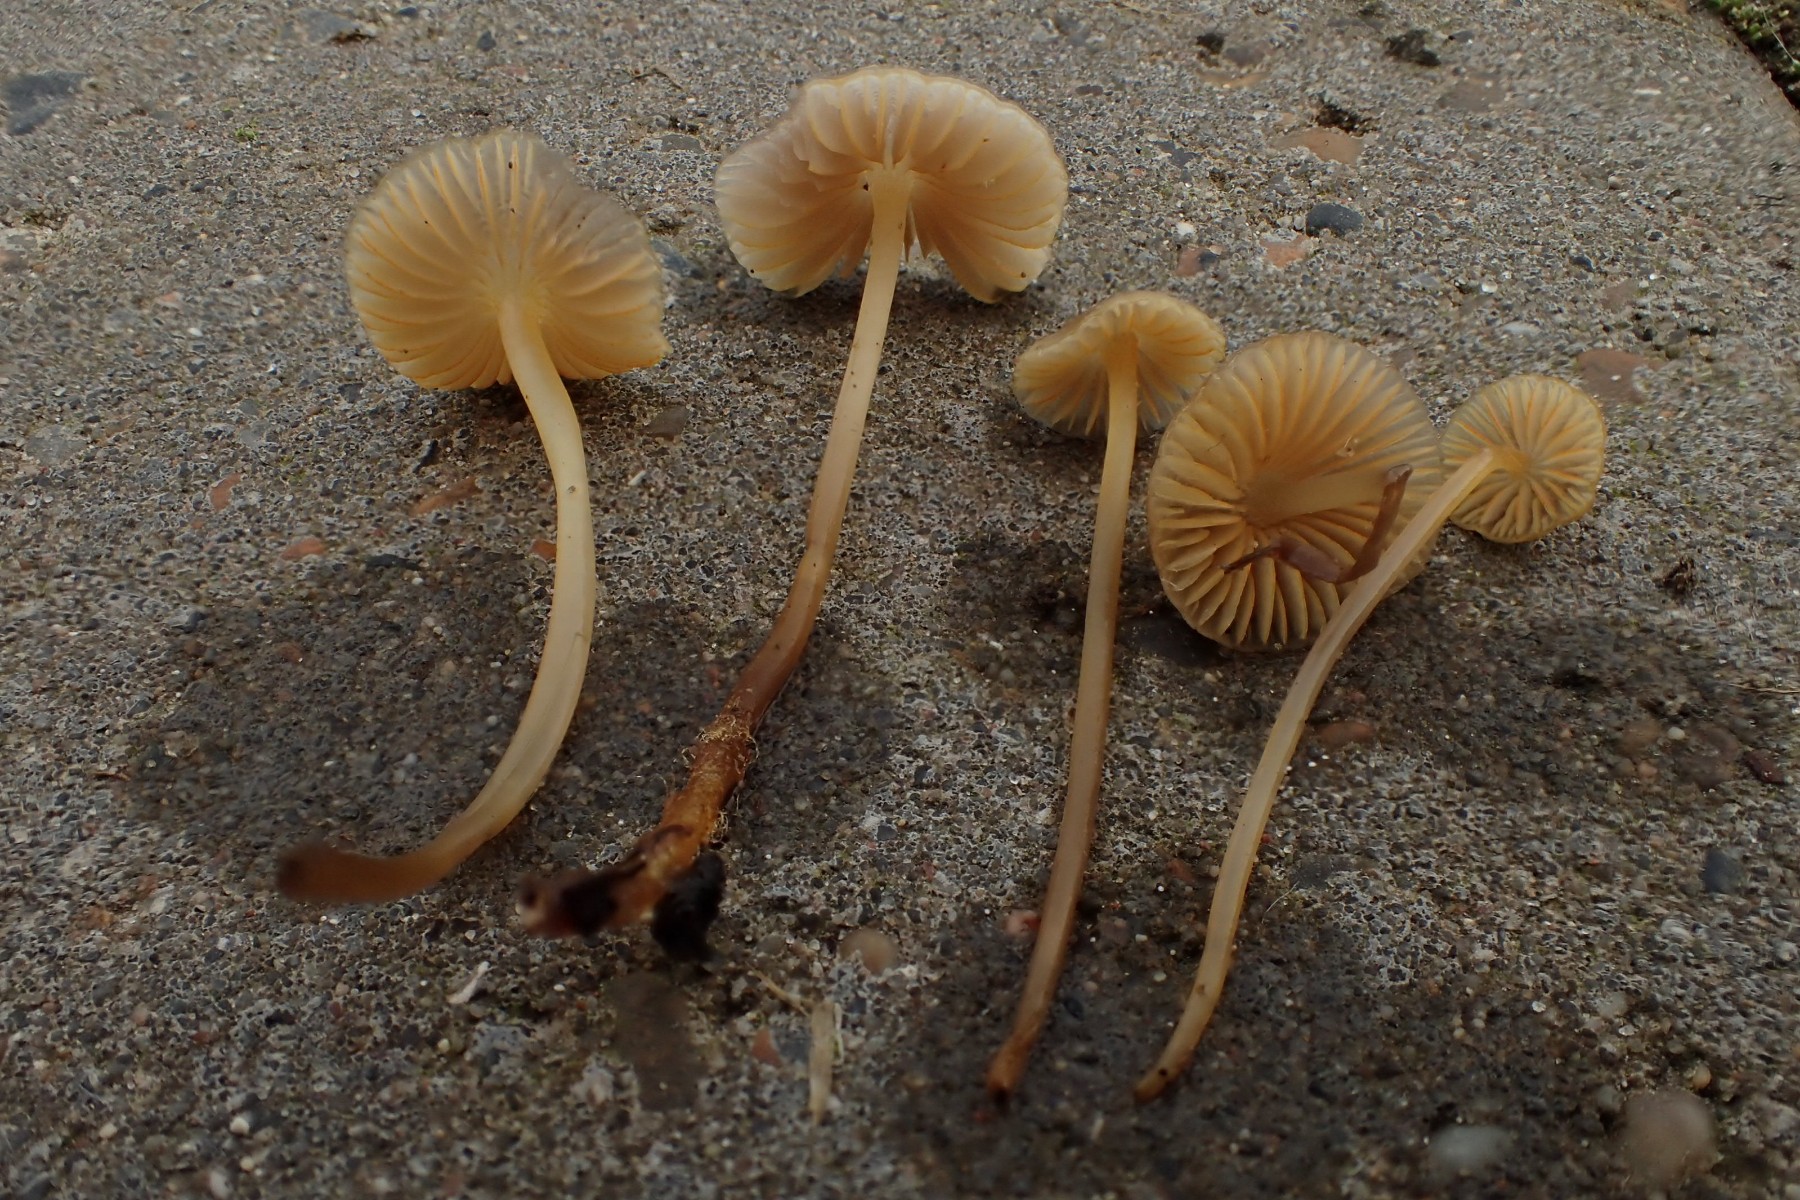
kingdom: Fungi
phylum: Basidiomycota
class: Agaricomycetes
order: Agaricales
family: Mycenaceae
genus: Mycena
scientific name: Mycena aurantiomarginata
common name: orangeægget huesvamp
